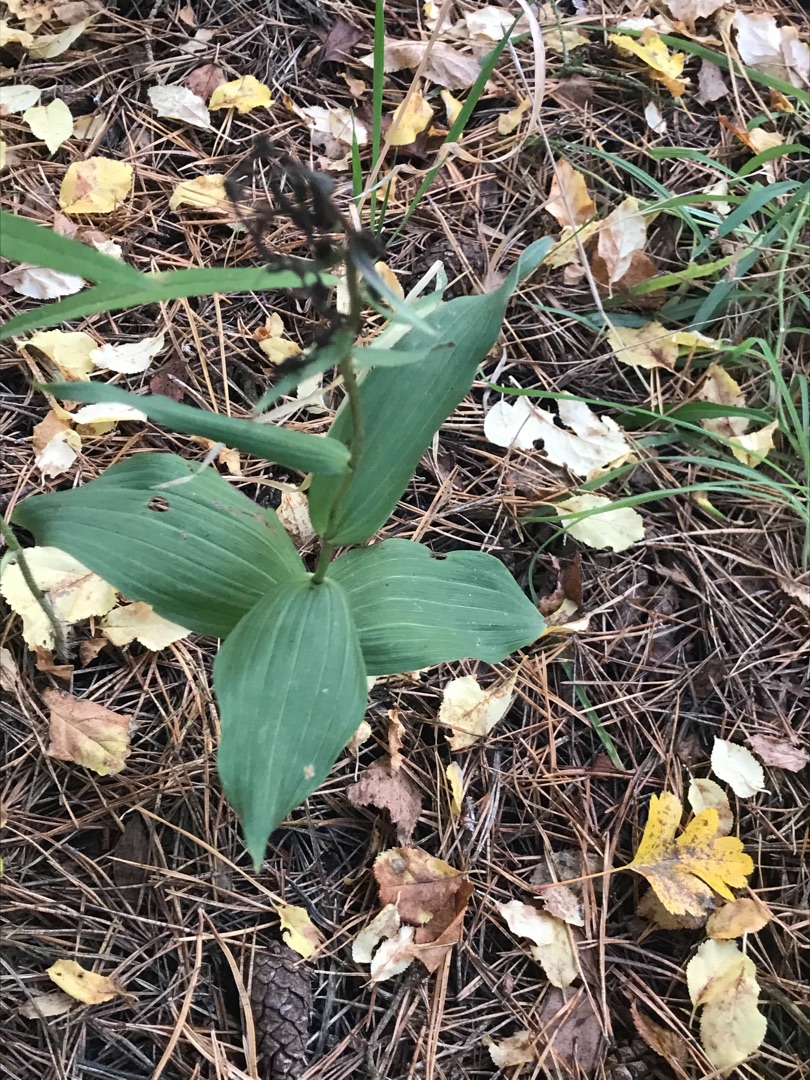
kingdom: Plantae
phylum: Tracheophyta
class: Liliopsida
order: Asparagales
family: Orchidaceae
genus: Epipactis
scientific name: Epipactis helleborine
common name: Skov-hullæbe
